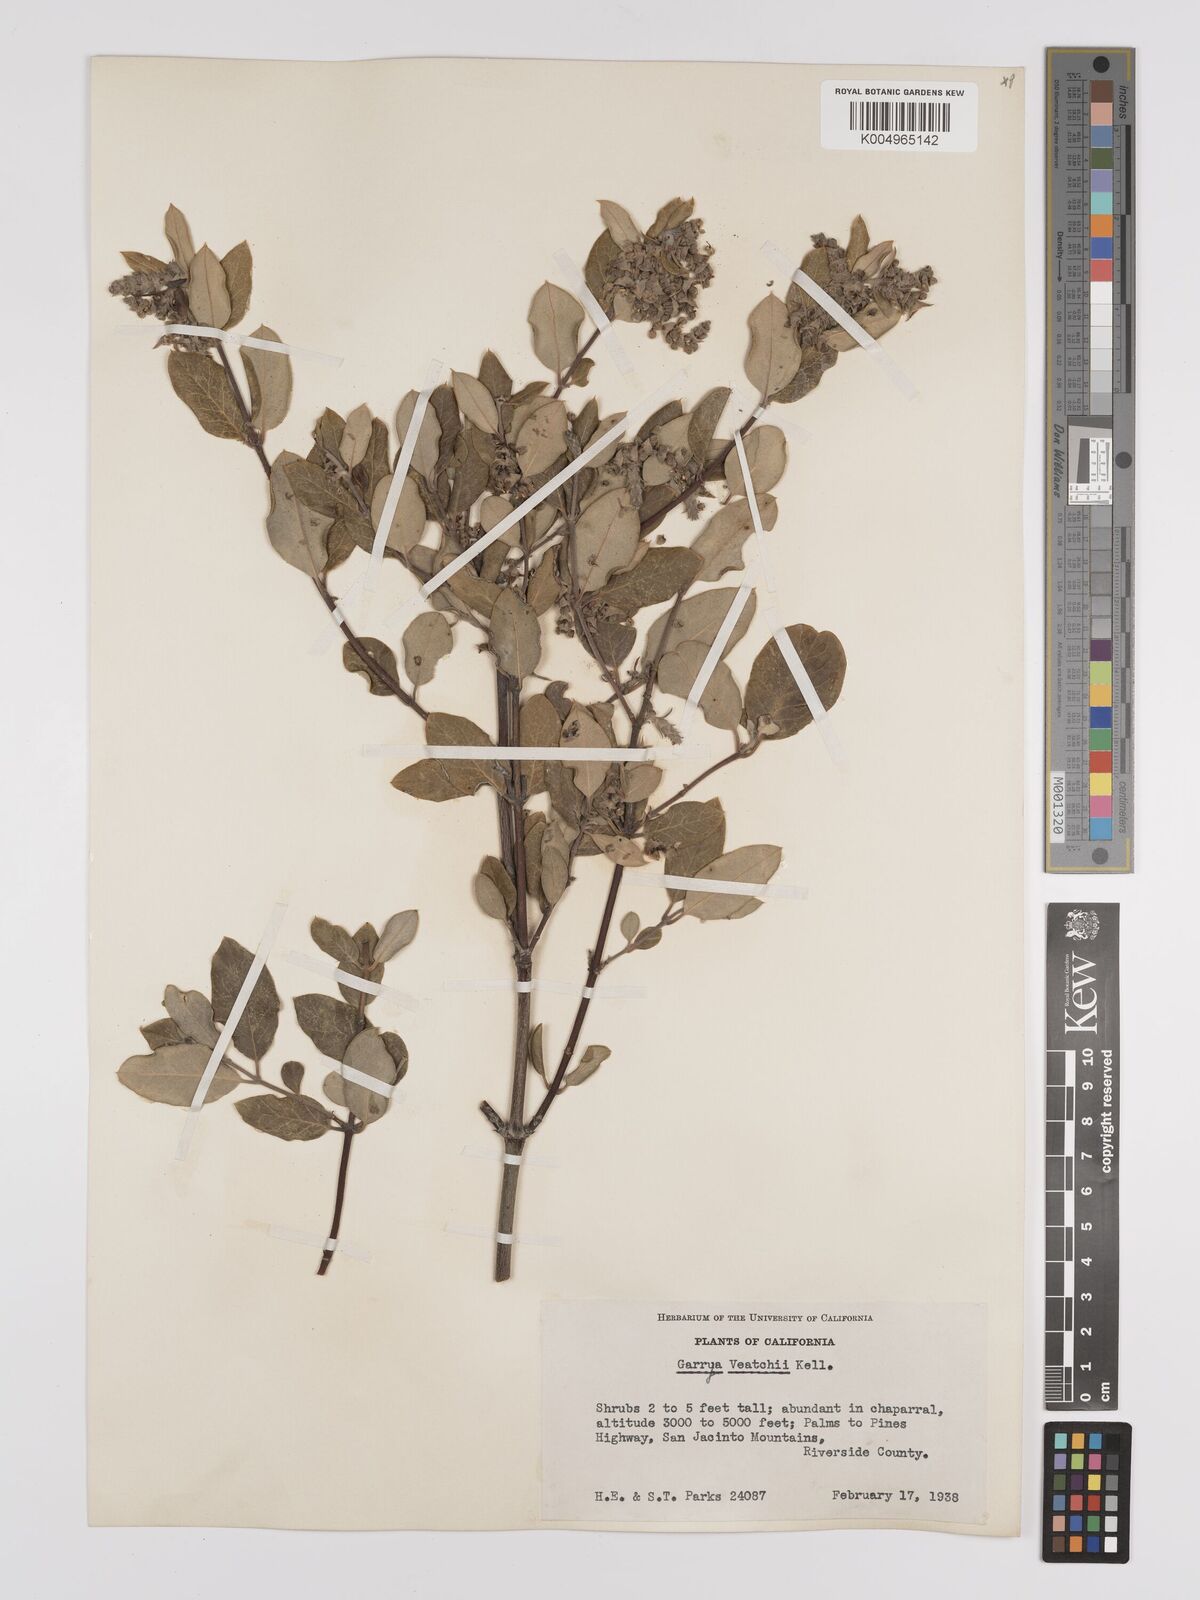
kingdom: Plantae
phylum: Tracheophyta
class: Magnoliopsida
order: Garryales
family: Garryaceae
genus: Garrya
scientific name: Garrya veatchii
